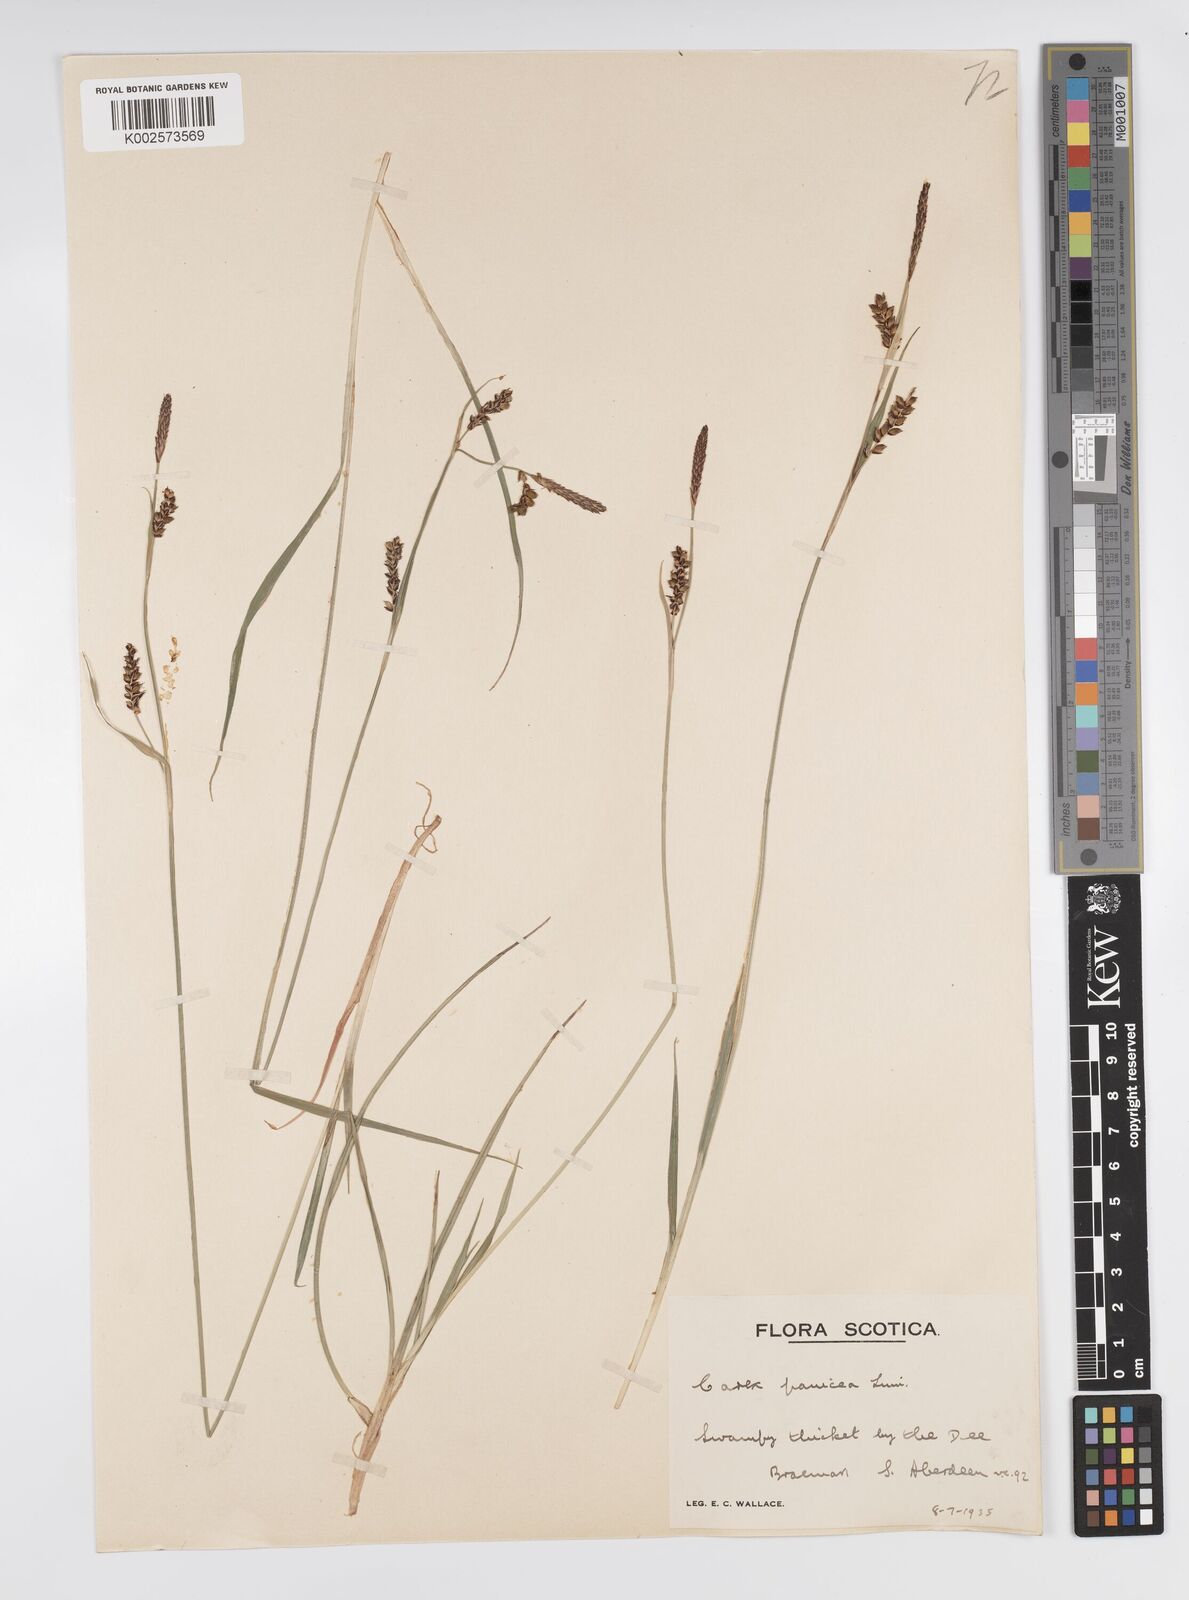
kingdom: Plantae
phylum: Tracheophyta
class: Liliopsida
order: Poales
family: Cyperaceae
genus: Carex
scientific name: Carex panicea
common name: Carnation sedge
